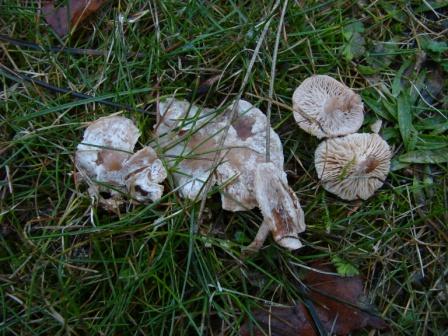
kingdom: Fungi
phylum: Basidiomycota
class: Agaricomycetes
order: Agaricales
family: Tricholomataceae
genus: Clitocybe
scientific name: Clitocybe rivulosa
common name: eng-tragthat
